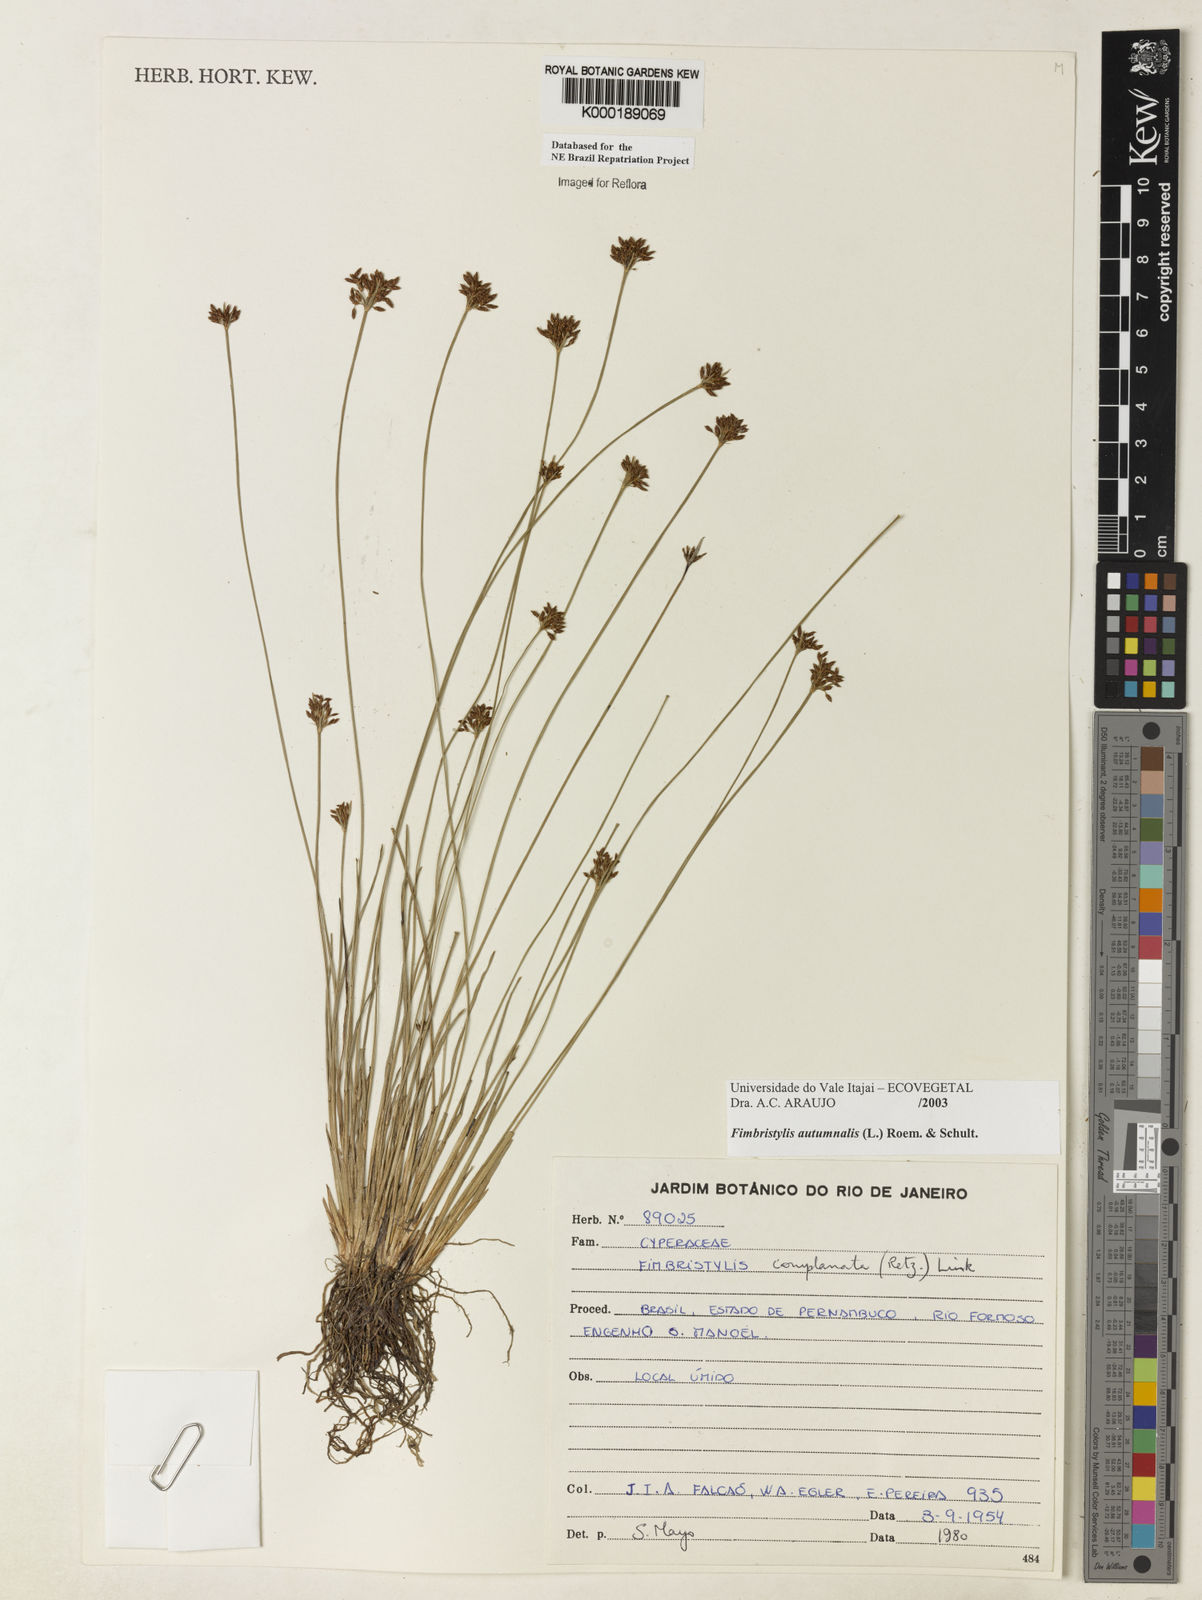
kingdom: Plantae
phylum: Tracheophyta
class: Liliopsida
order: Poales
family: Cyperaceae
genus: Fimbristylis
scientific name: Fimbristylis autumnalis
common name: Slender fimbristylis
